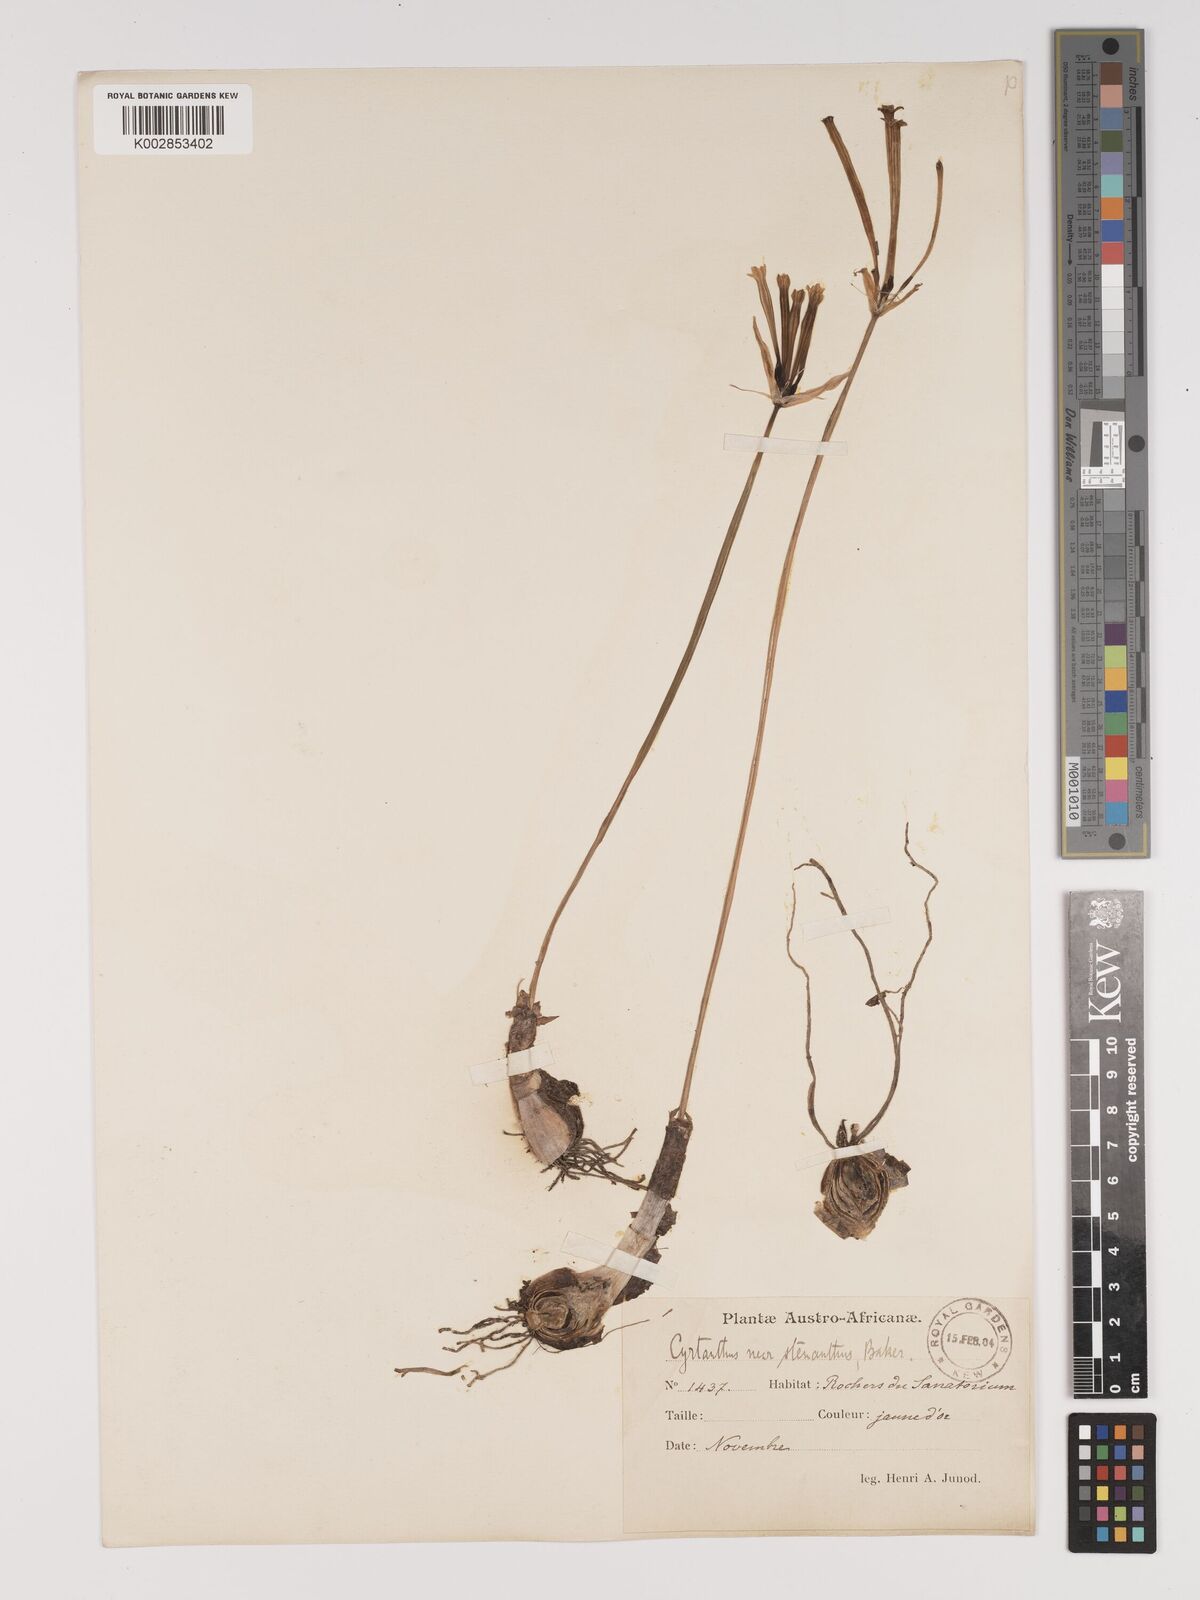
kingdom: Plantae
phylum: Tracheophyta
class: Liliopsida
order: Asparagales
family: Amaryllidaceae
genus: Cyrtanthus
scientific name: Cyrtanthus stenanthus
